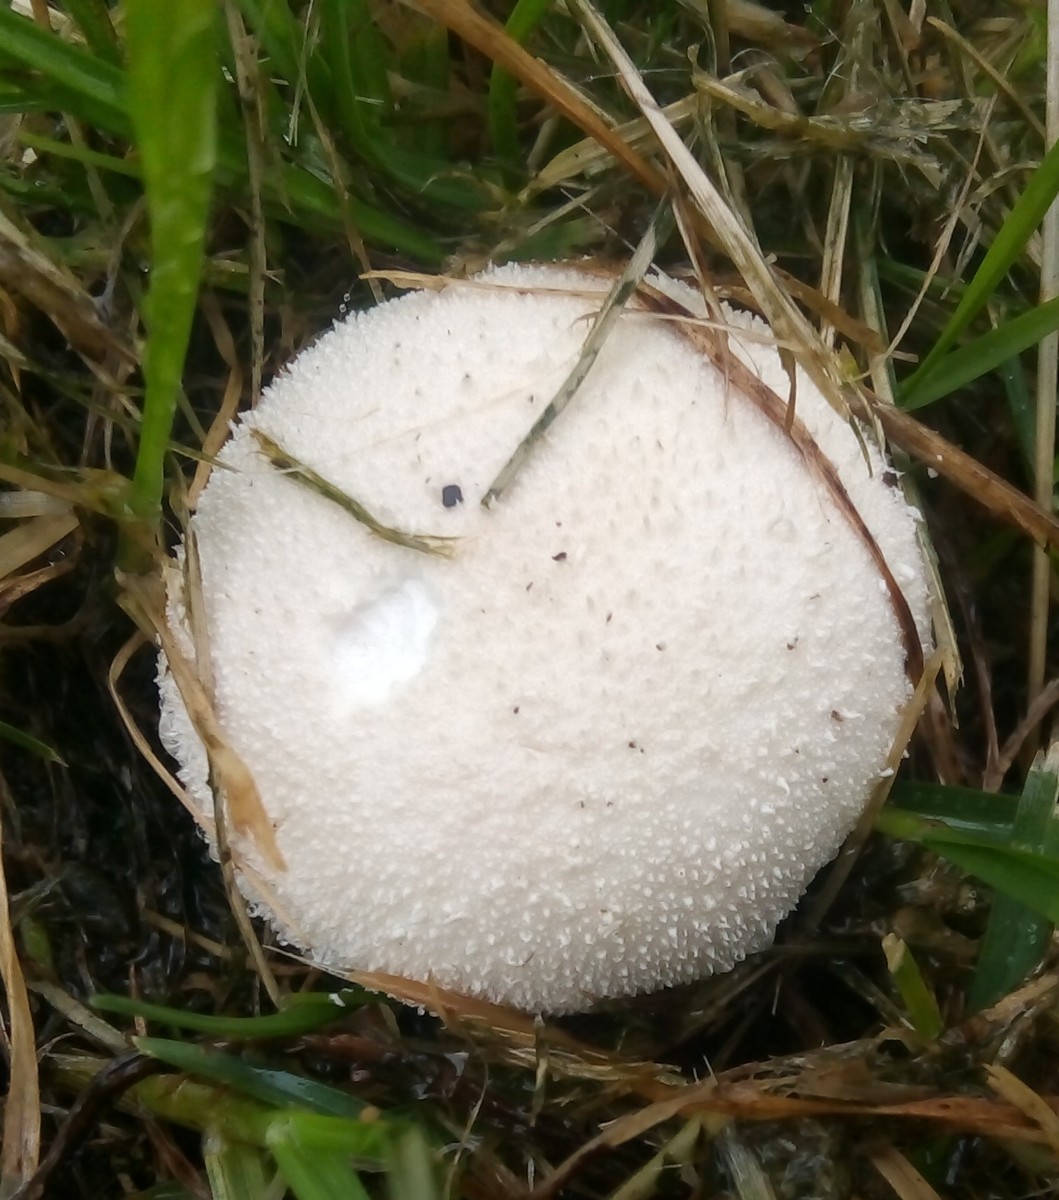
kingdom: Fungi
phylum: Basidiomycota
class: Agaricomycetes
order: Agaricales
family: Lycoperdaceae
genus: Lycoperdon
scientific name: Lycoperdon pratense
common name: flad støvbold
